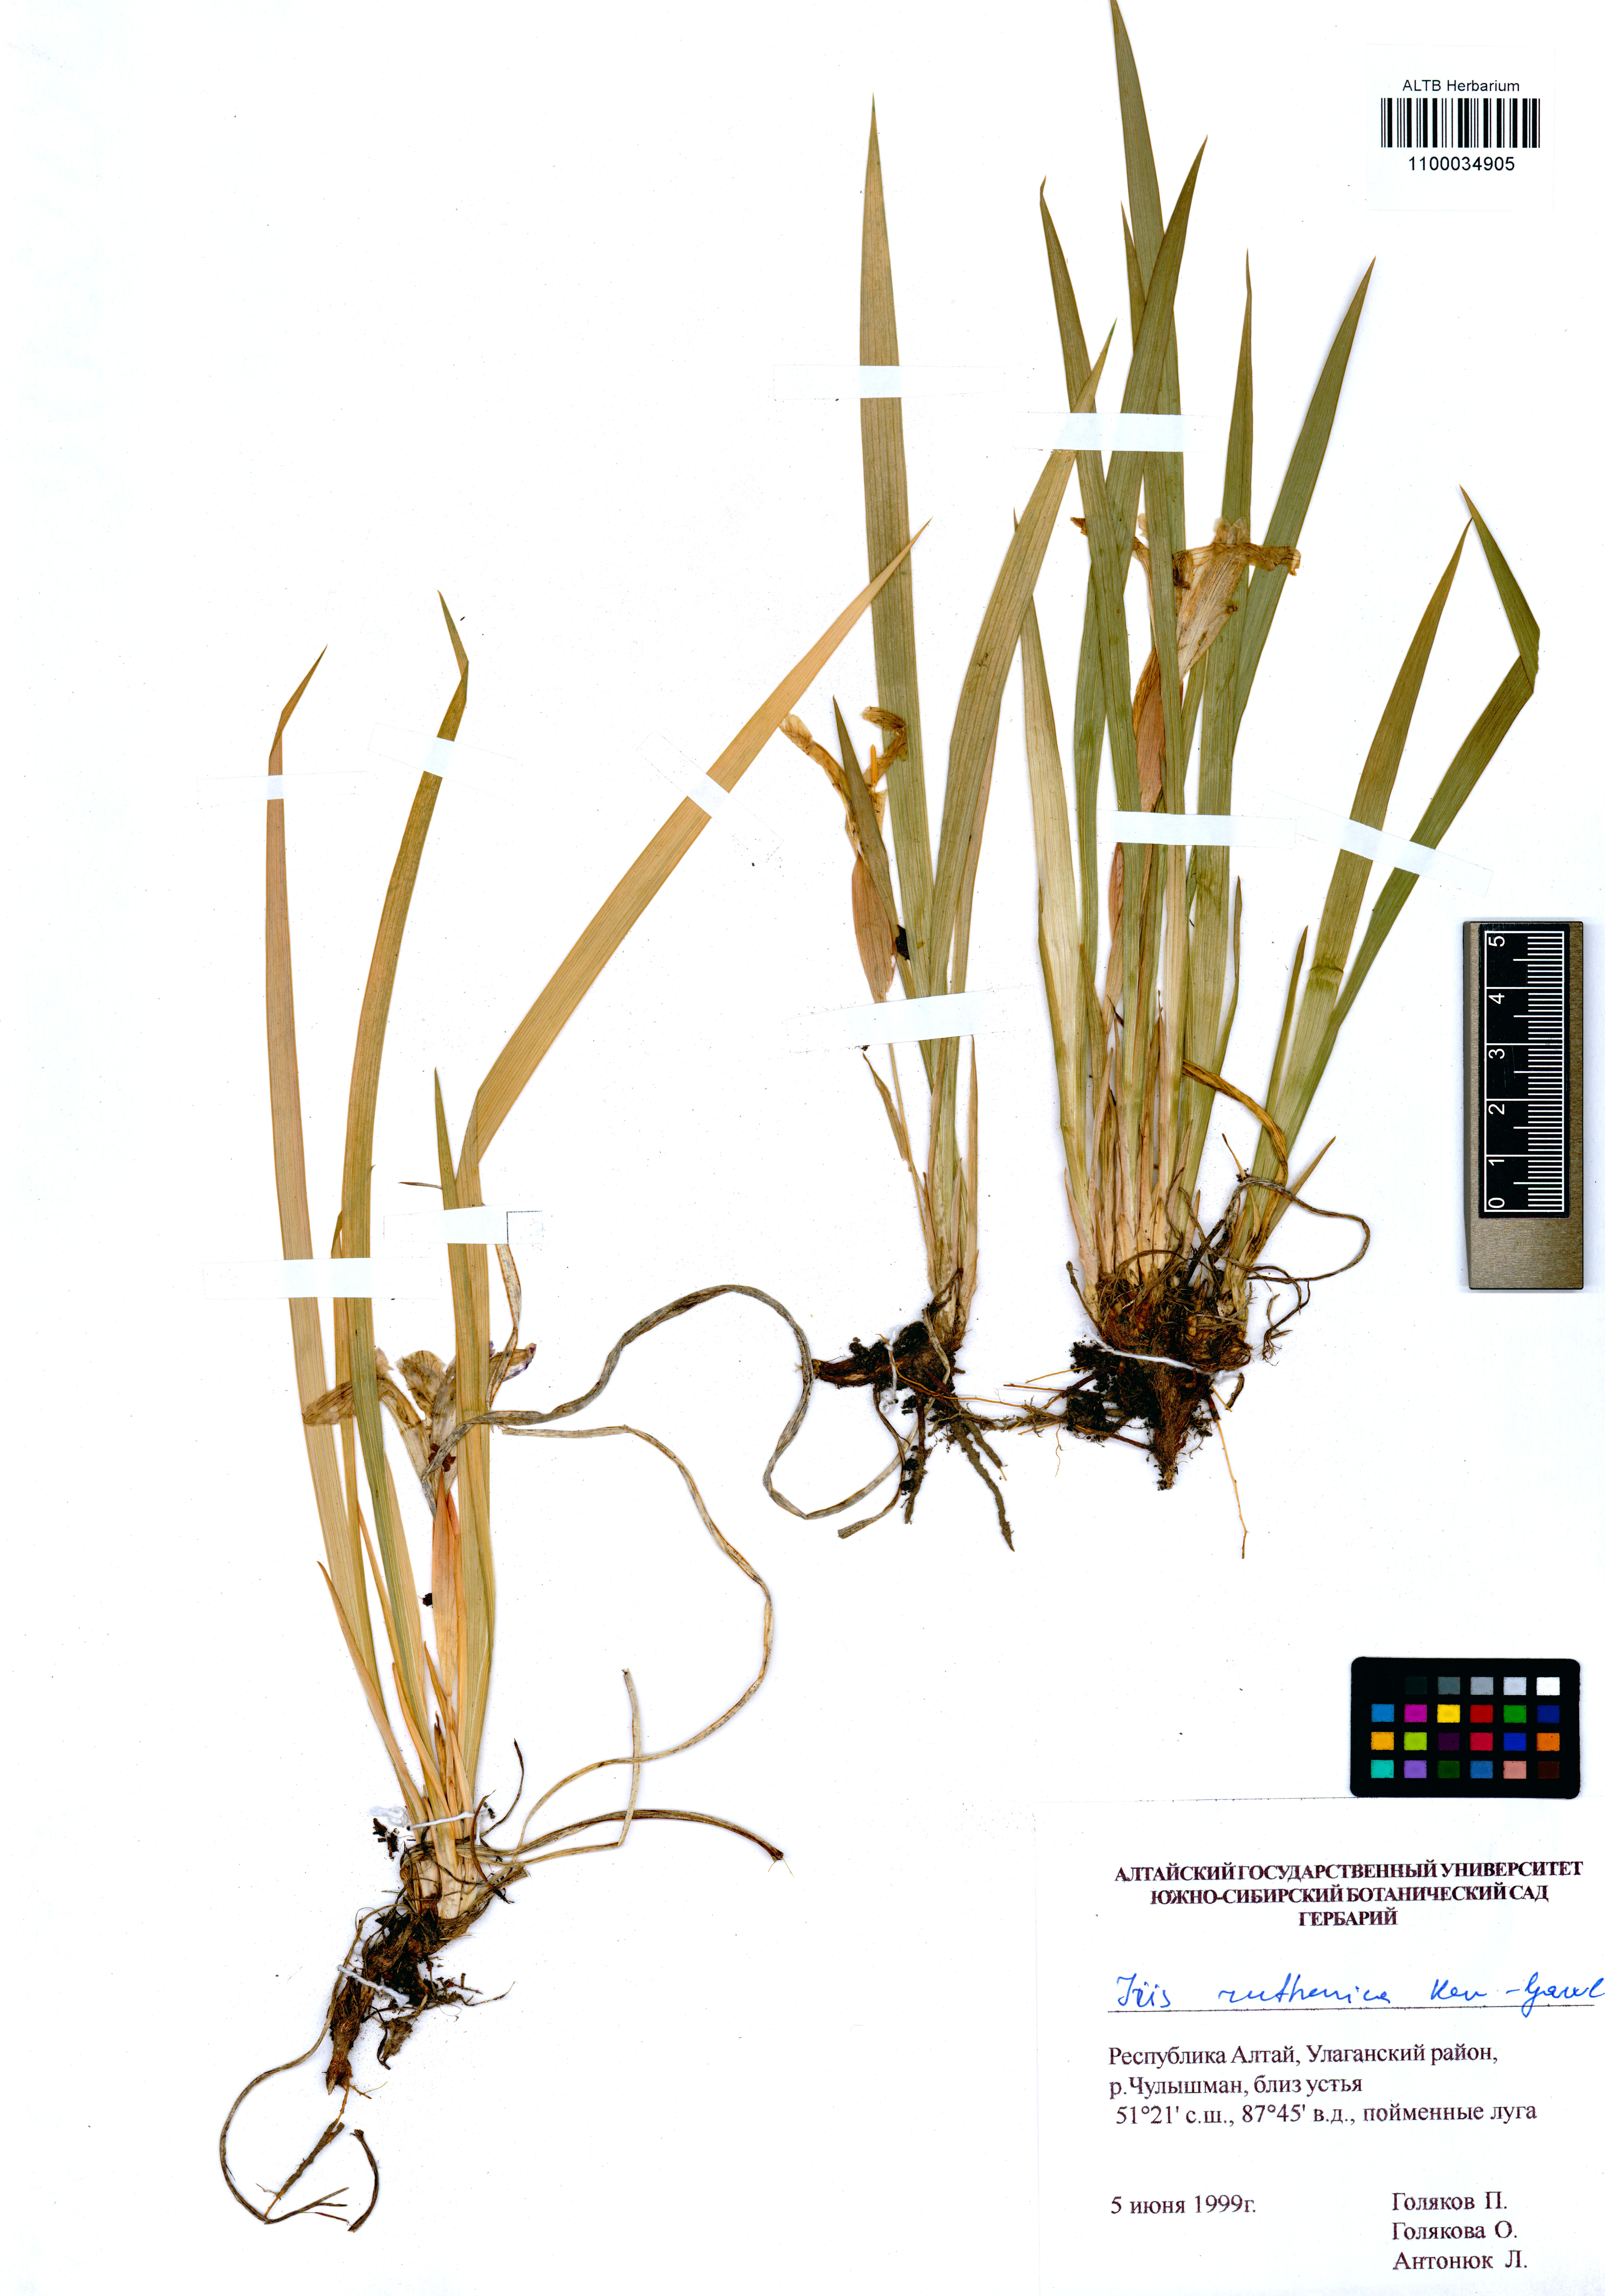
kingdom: Plantae
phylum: Tracheophyta
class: Liliopsida
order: Asparagales
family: Iridaceae
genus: Iris
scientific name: Iris ruthenica
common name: Purple-bract iris
